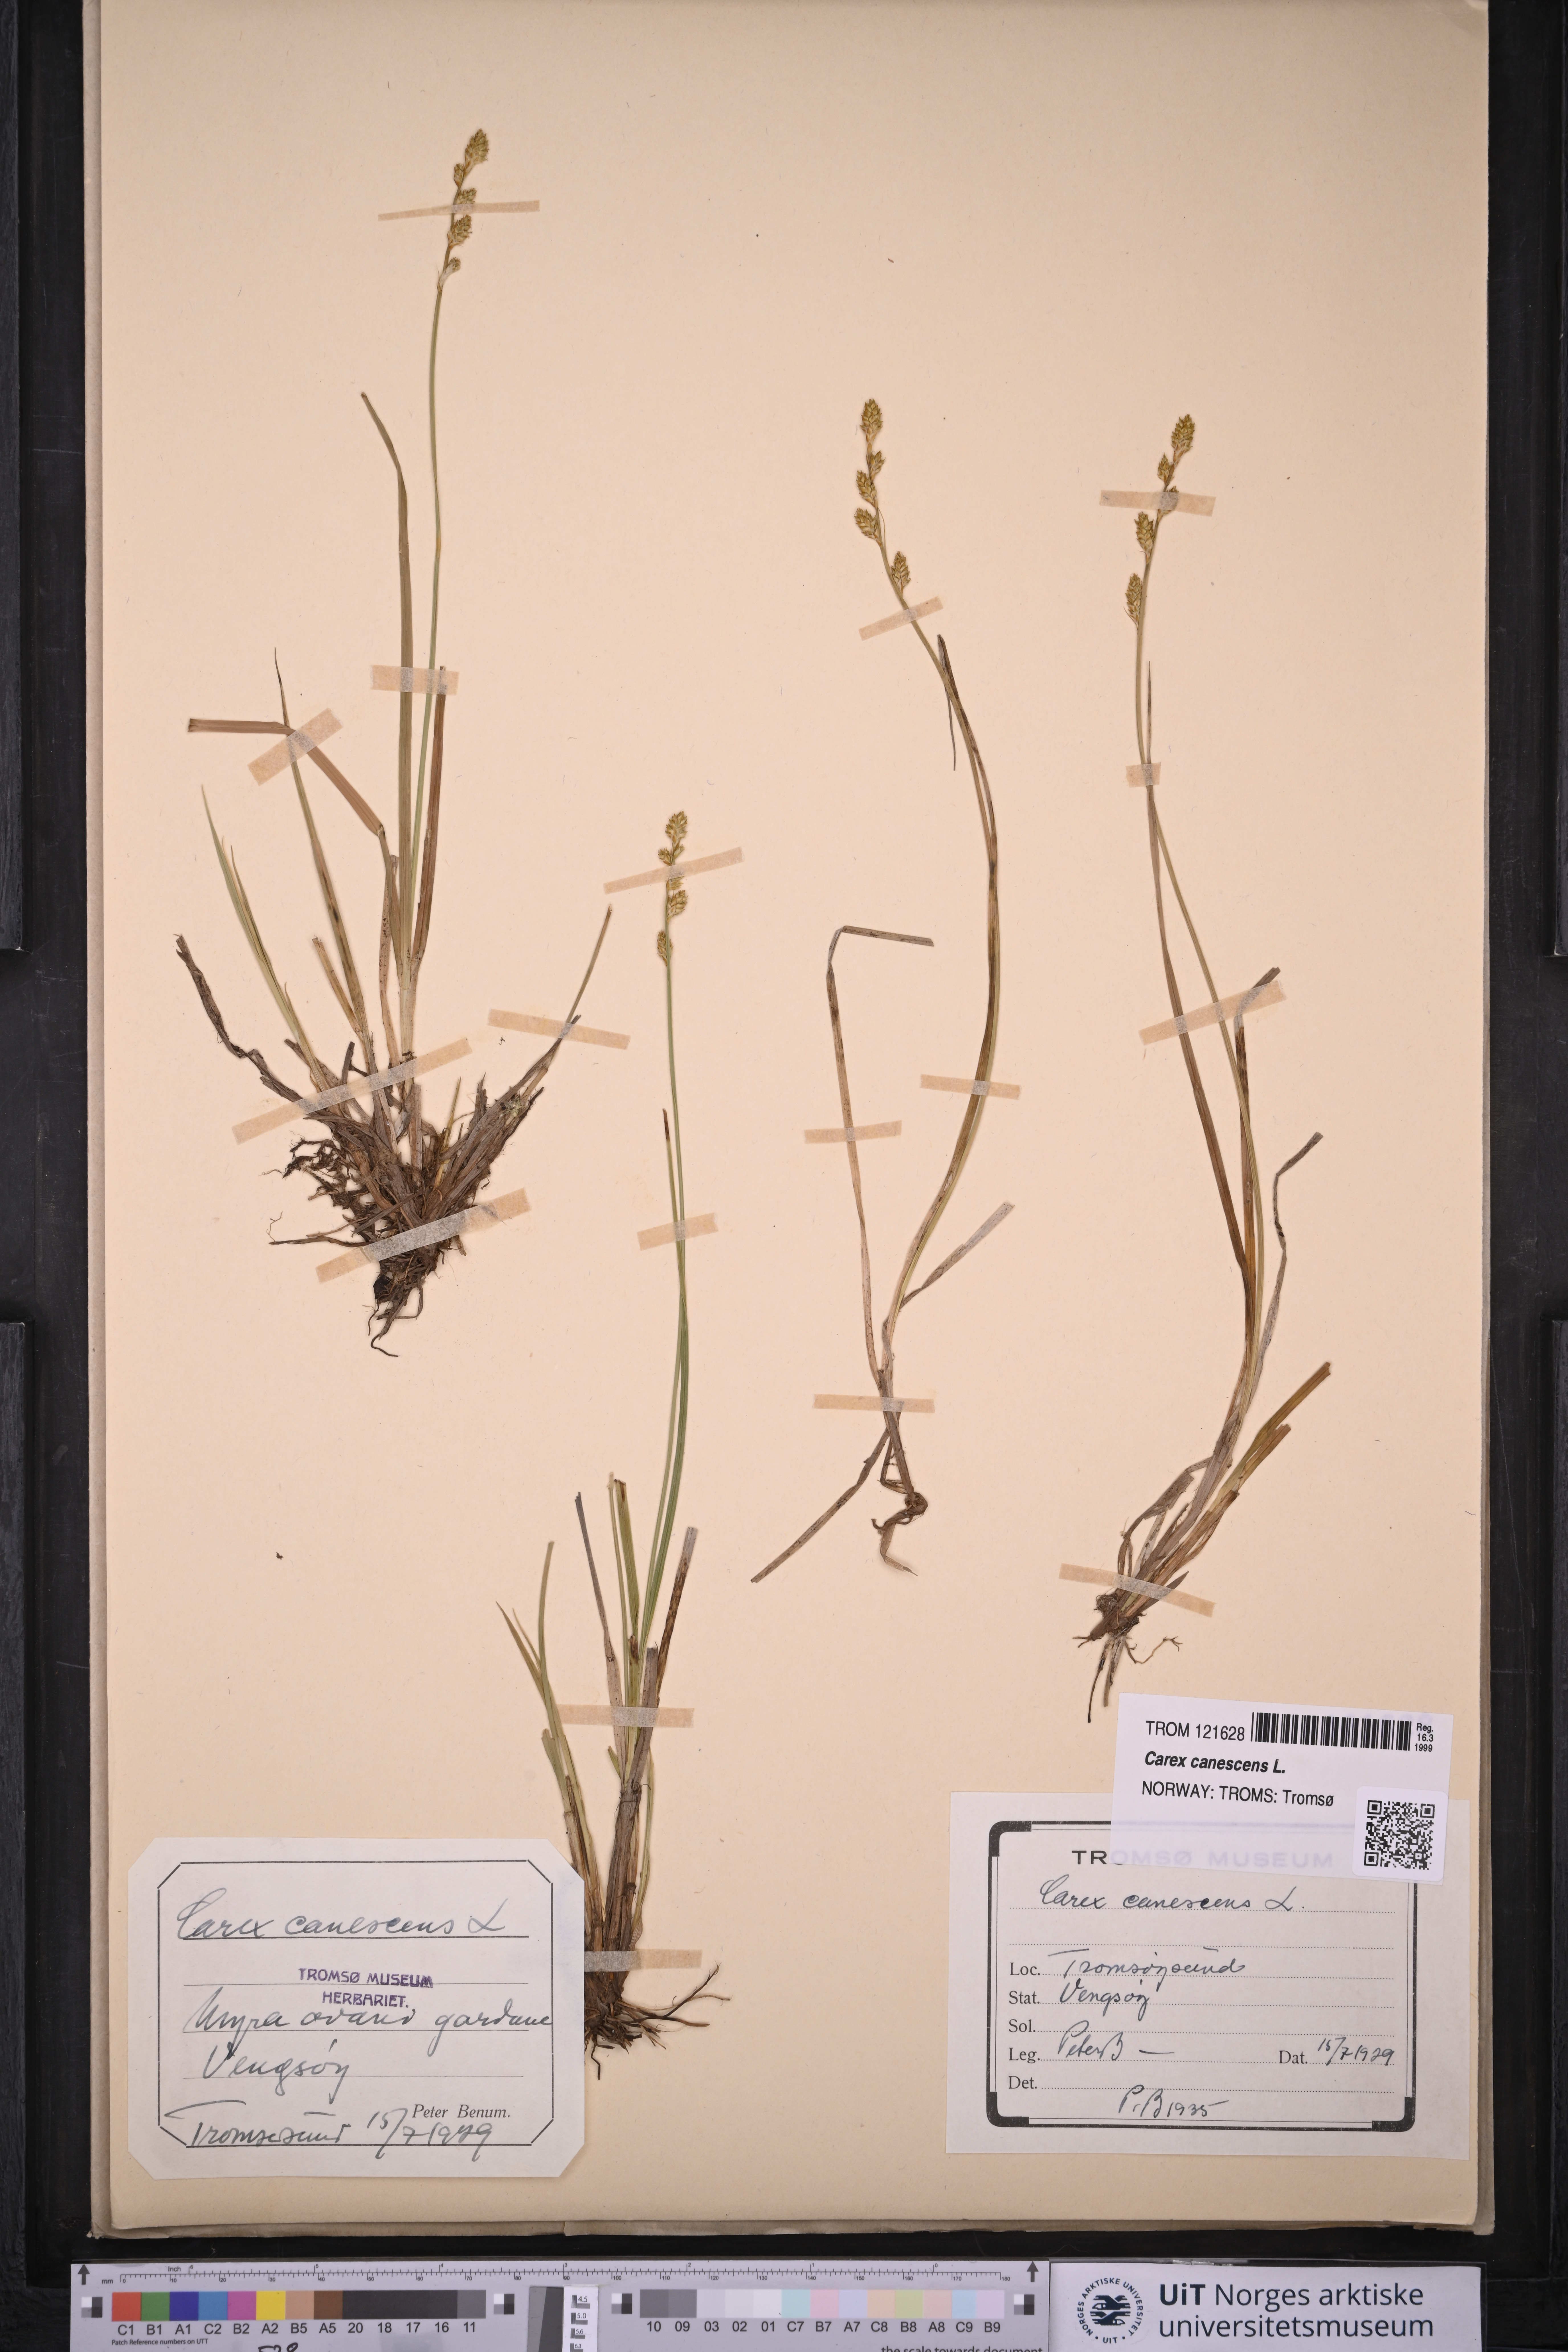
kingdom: Plantae
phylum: Tracheophyta
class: Liliopsida
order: Poales
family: Cyperaceae
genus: Carex
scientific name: Carex canescens
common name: White sedge
